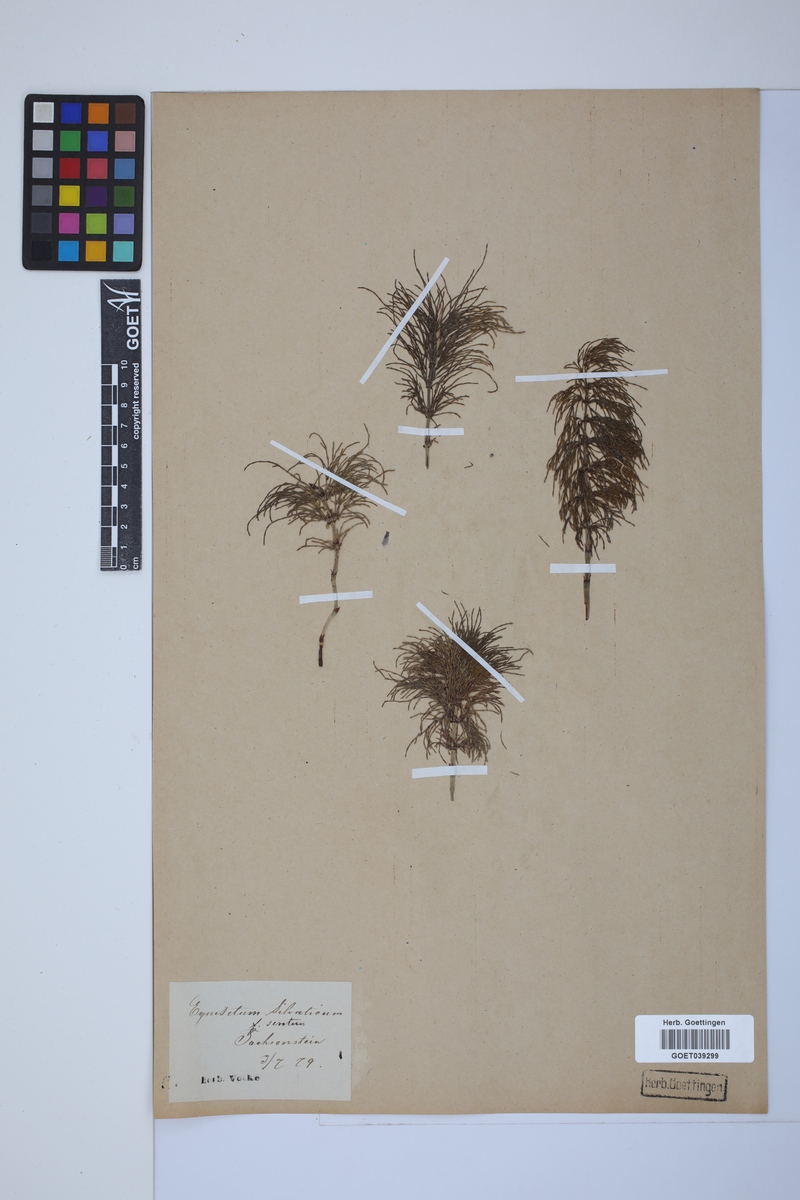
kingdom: Plantae
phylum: Tracheophyta
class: Polypodiopsida
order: Equisetales
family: Equisetaceae
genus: Equisetum
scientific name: Equisetum sylvaticum
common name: Wood horsetail
